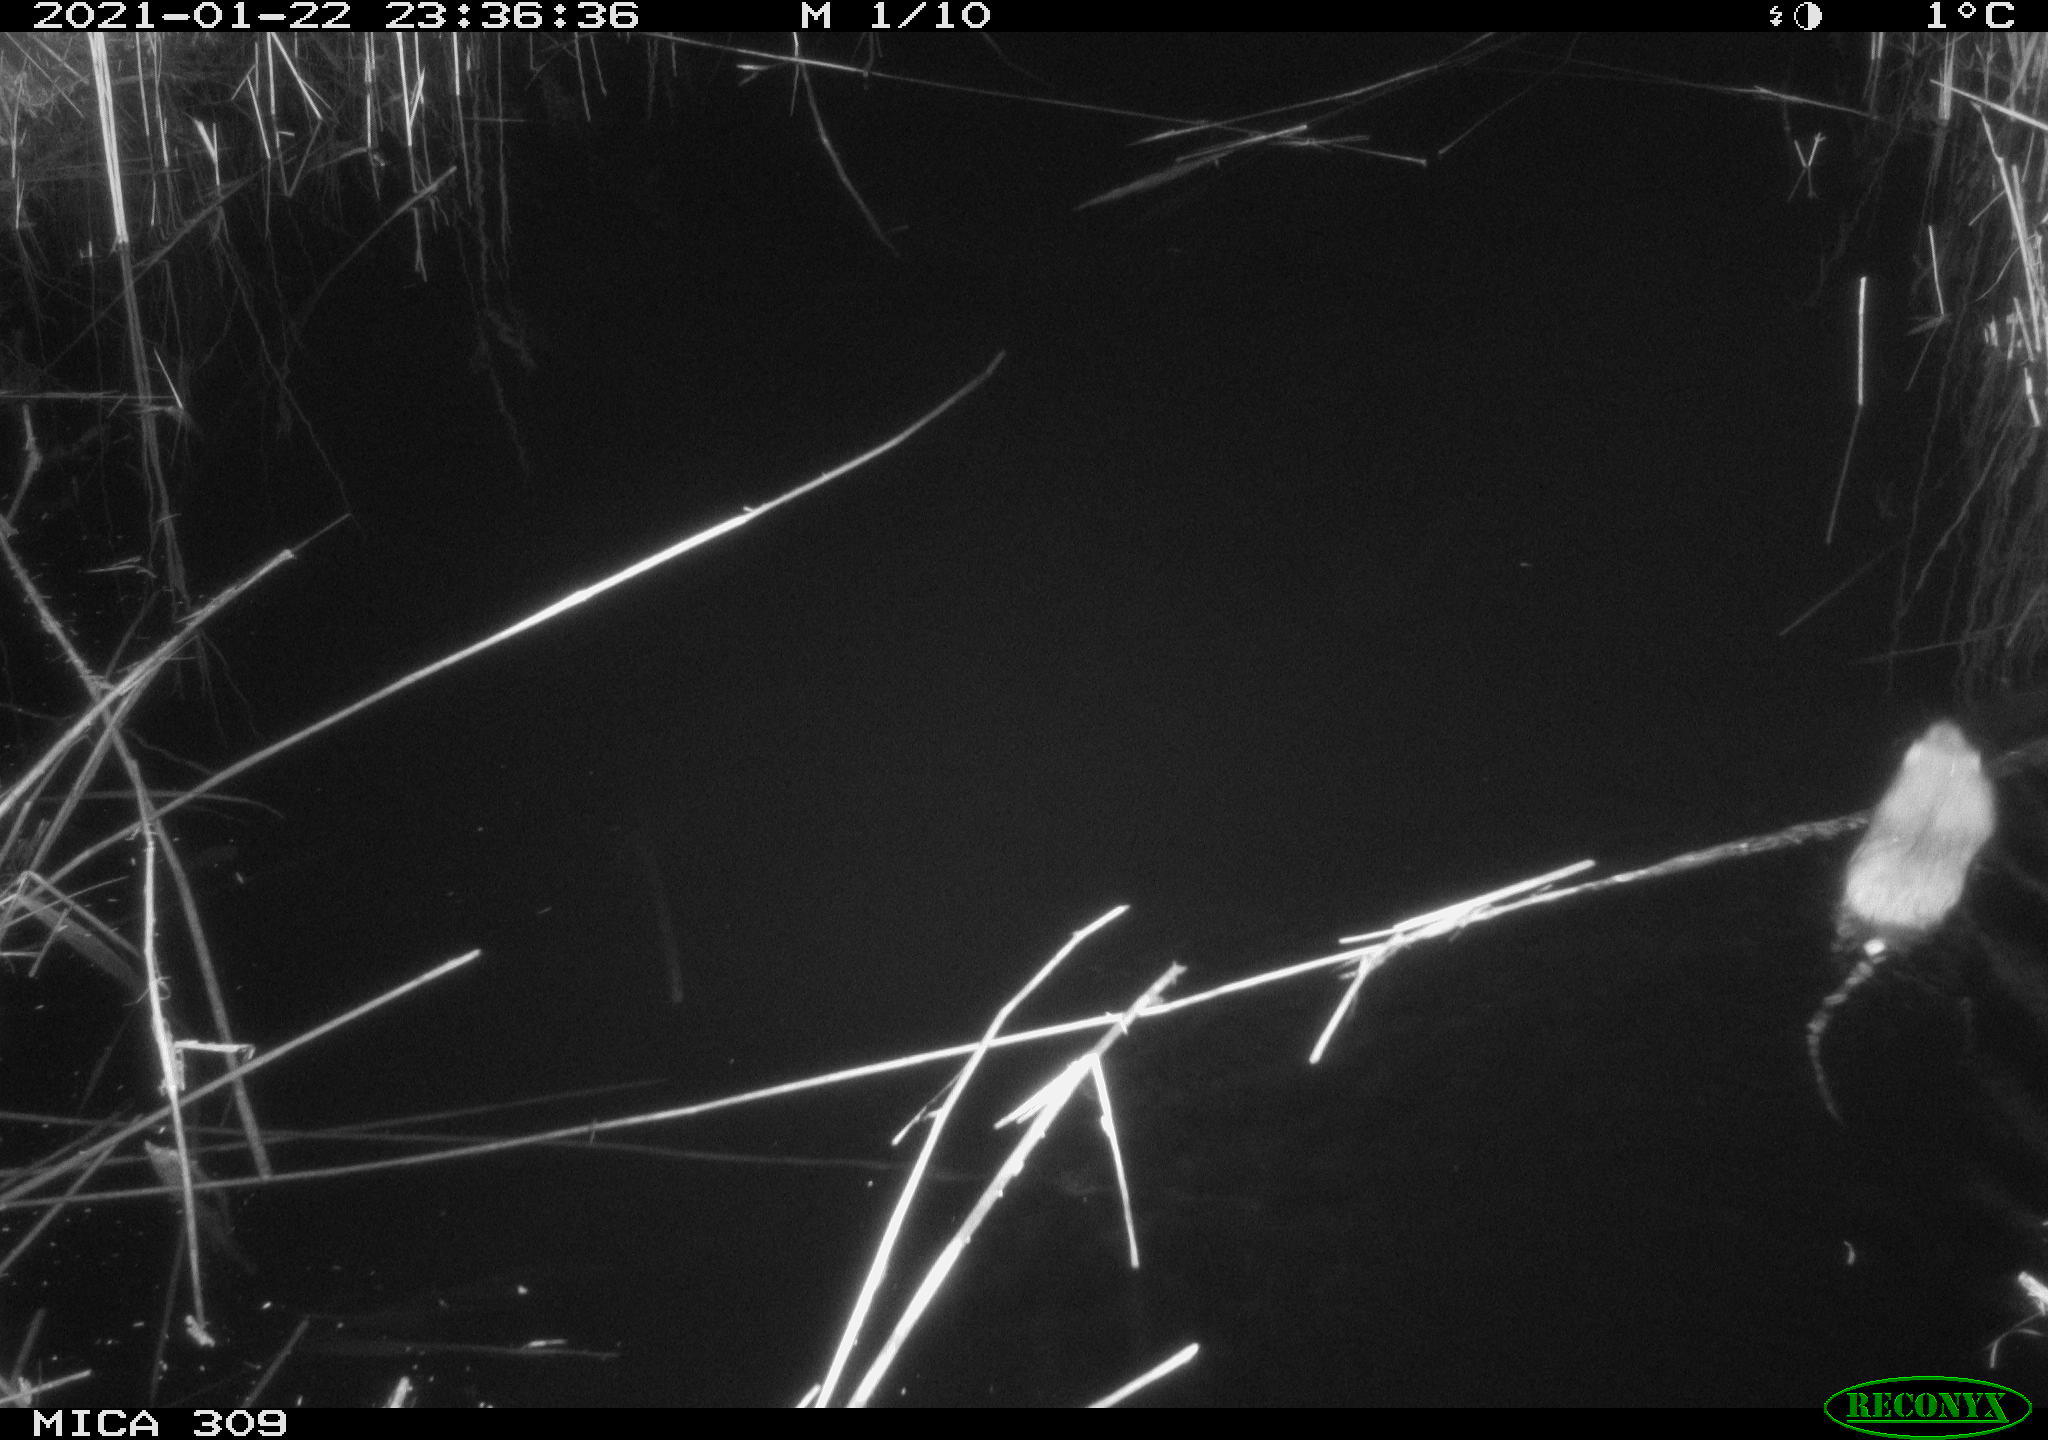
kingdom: Animalia
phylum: Chordata
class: Mammalia
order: Rodentia
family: Muridae
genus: Rattus
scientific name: Rattus norvegicus
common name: Brown rat
